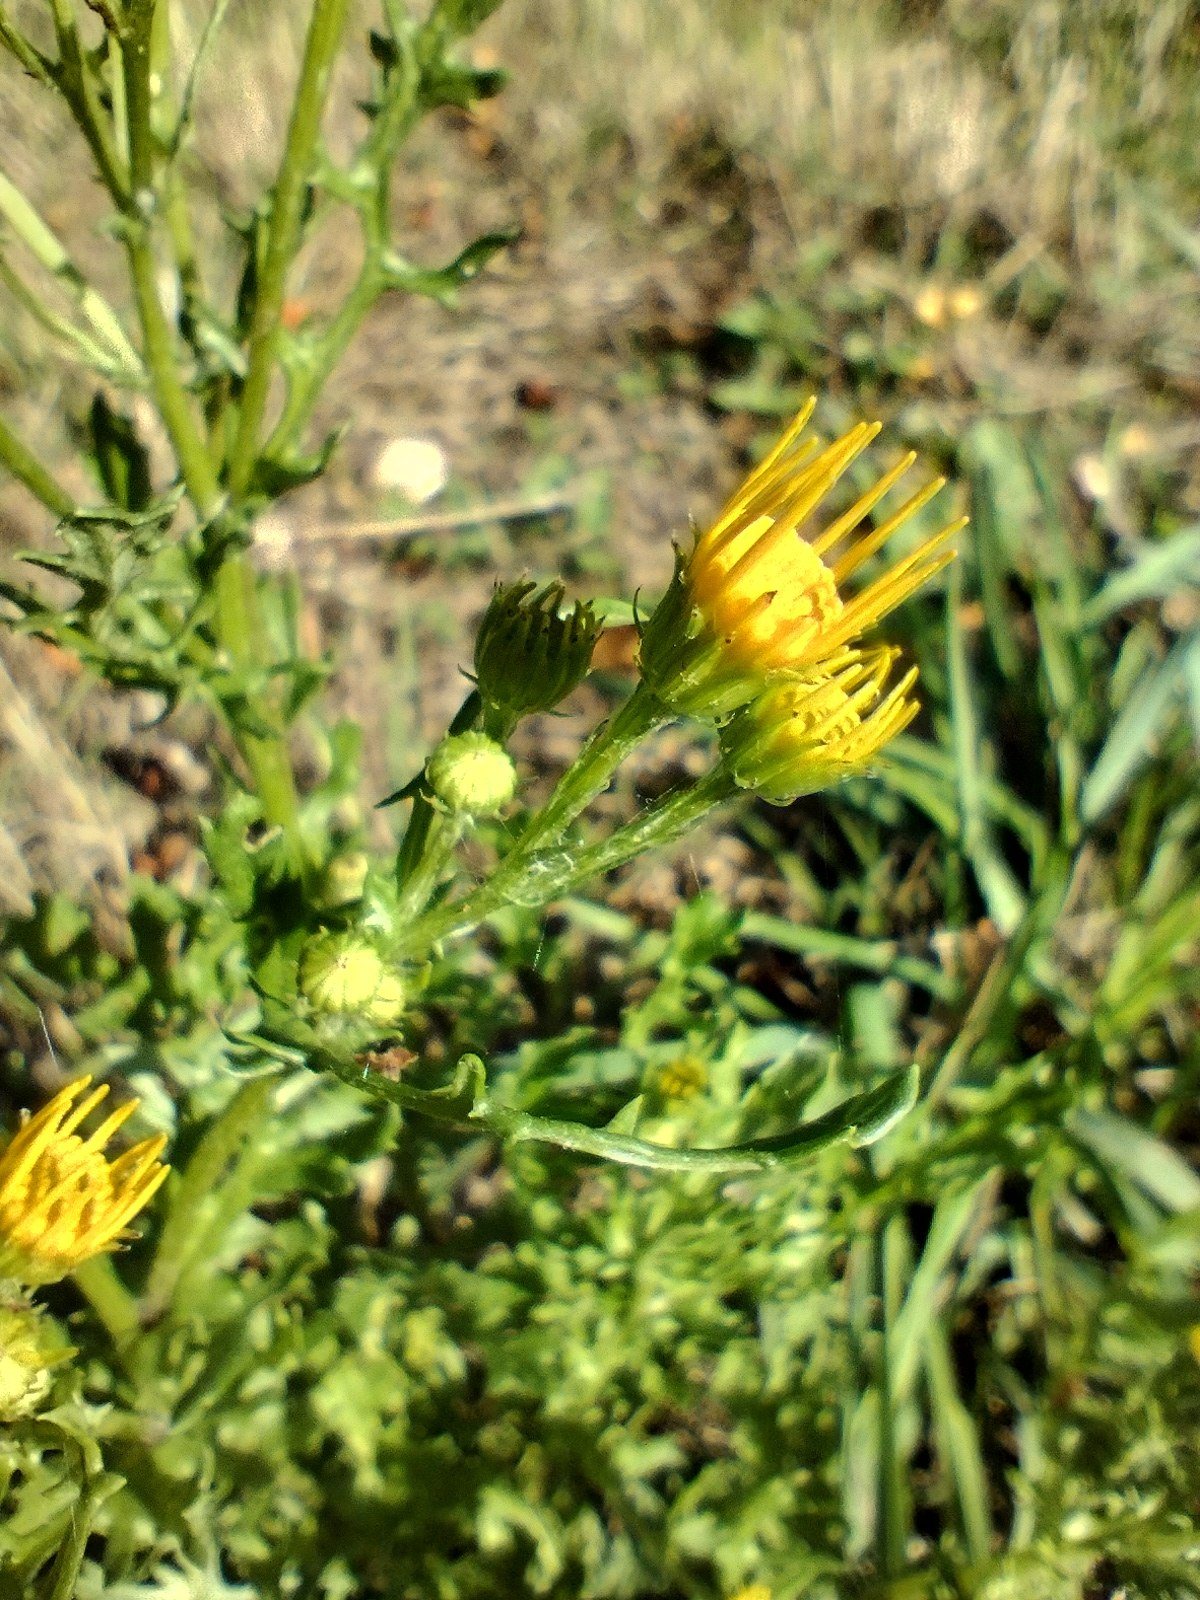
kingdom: Plantae
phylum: Tracheophyta
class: Magnoliopsida
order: Asterales
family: Asteraceae
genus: Jacobaea
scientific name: Jacobaea vulgaris
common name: Eng-brandbæger
